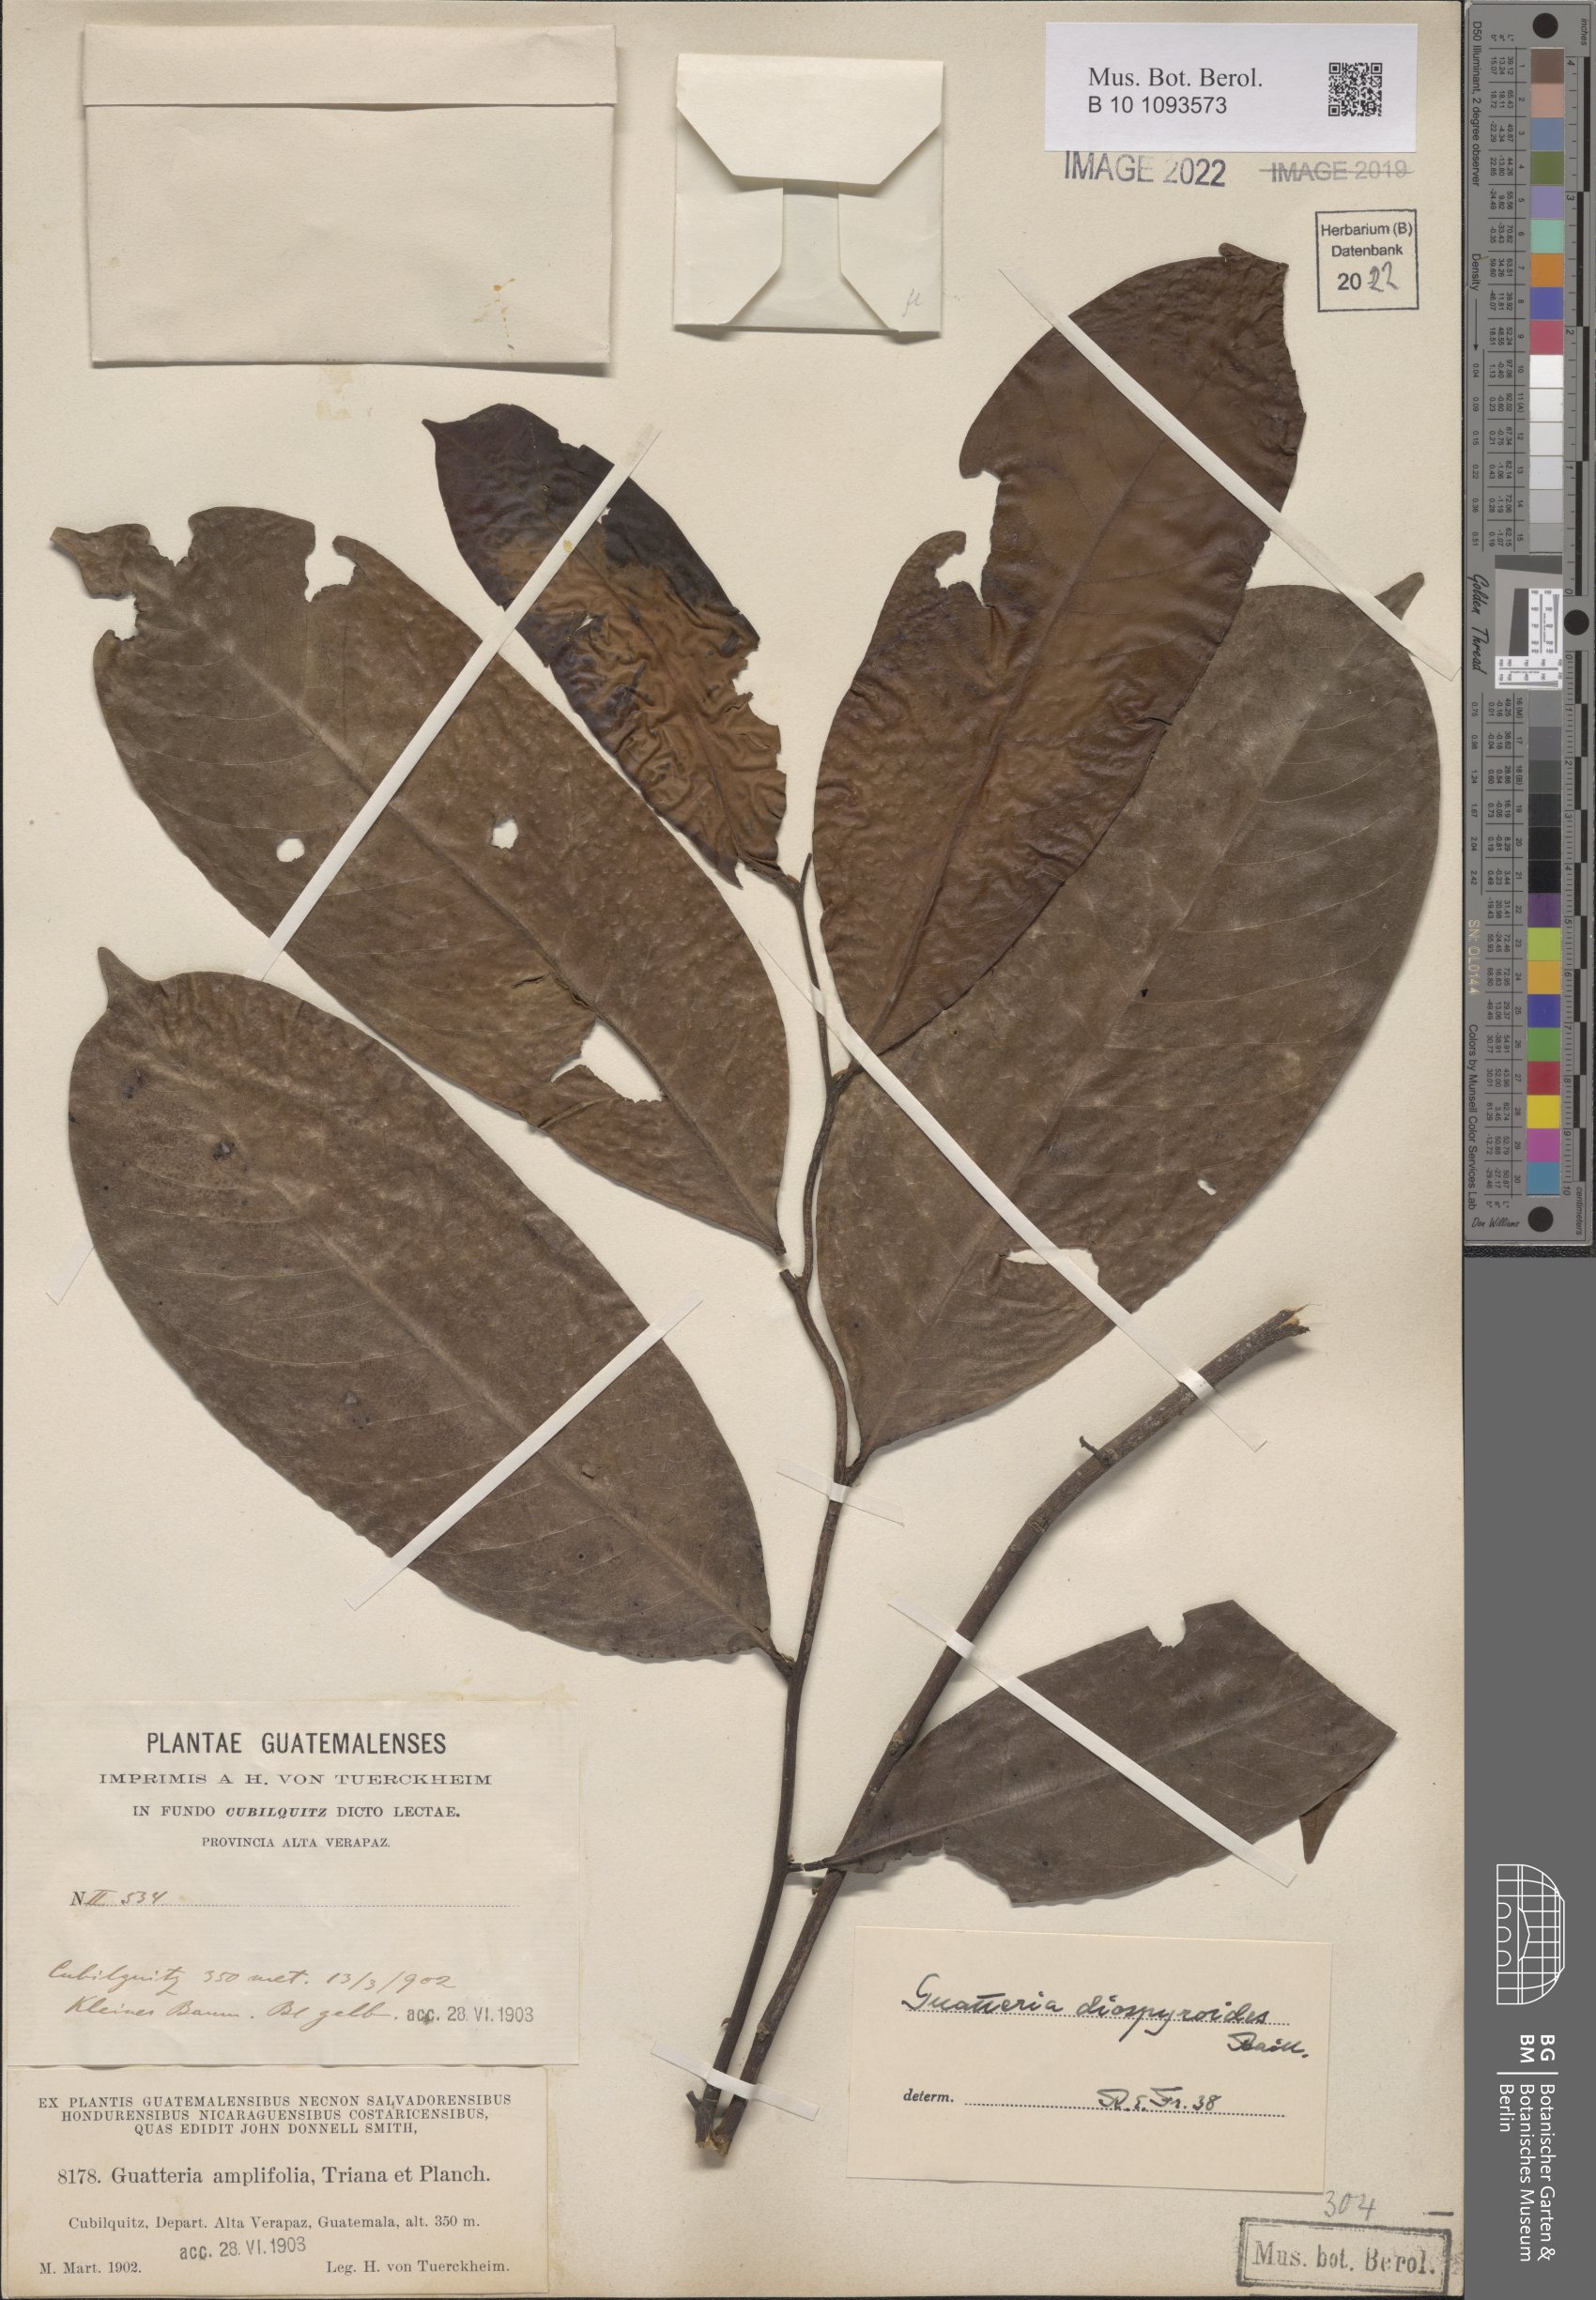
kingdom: Plantae
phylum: Tracheophyta
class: Magnoliopsida
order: Magnoliales
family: Annonaceae
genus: Guatteria
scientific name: Guatteria diospyroides
